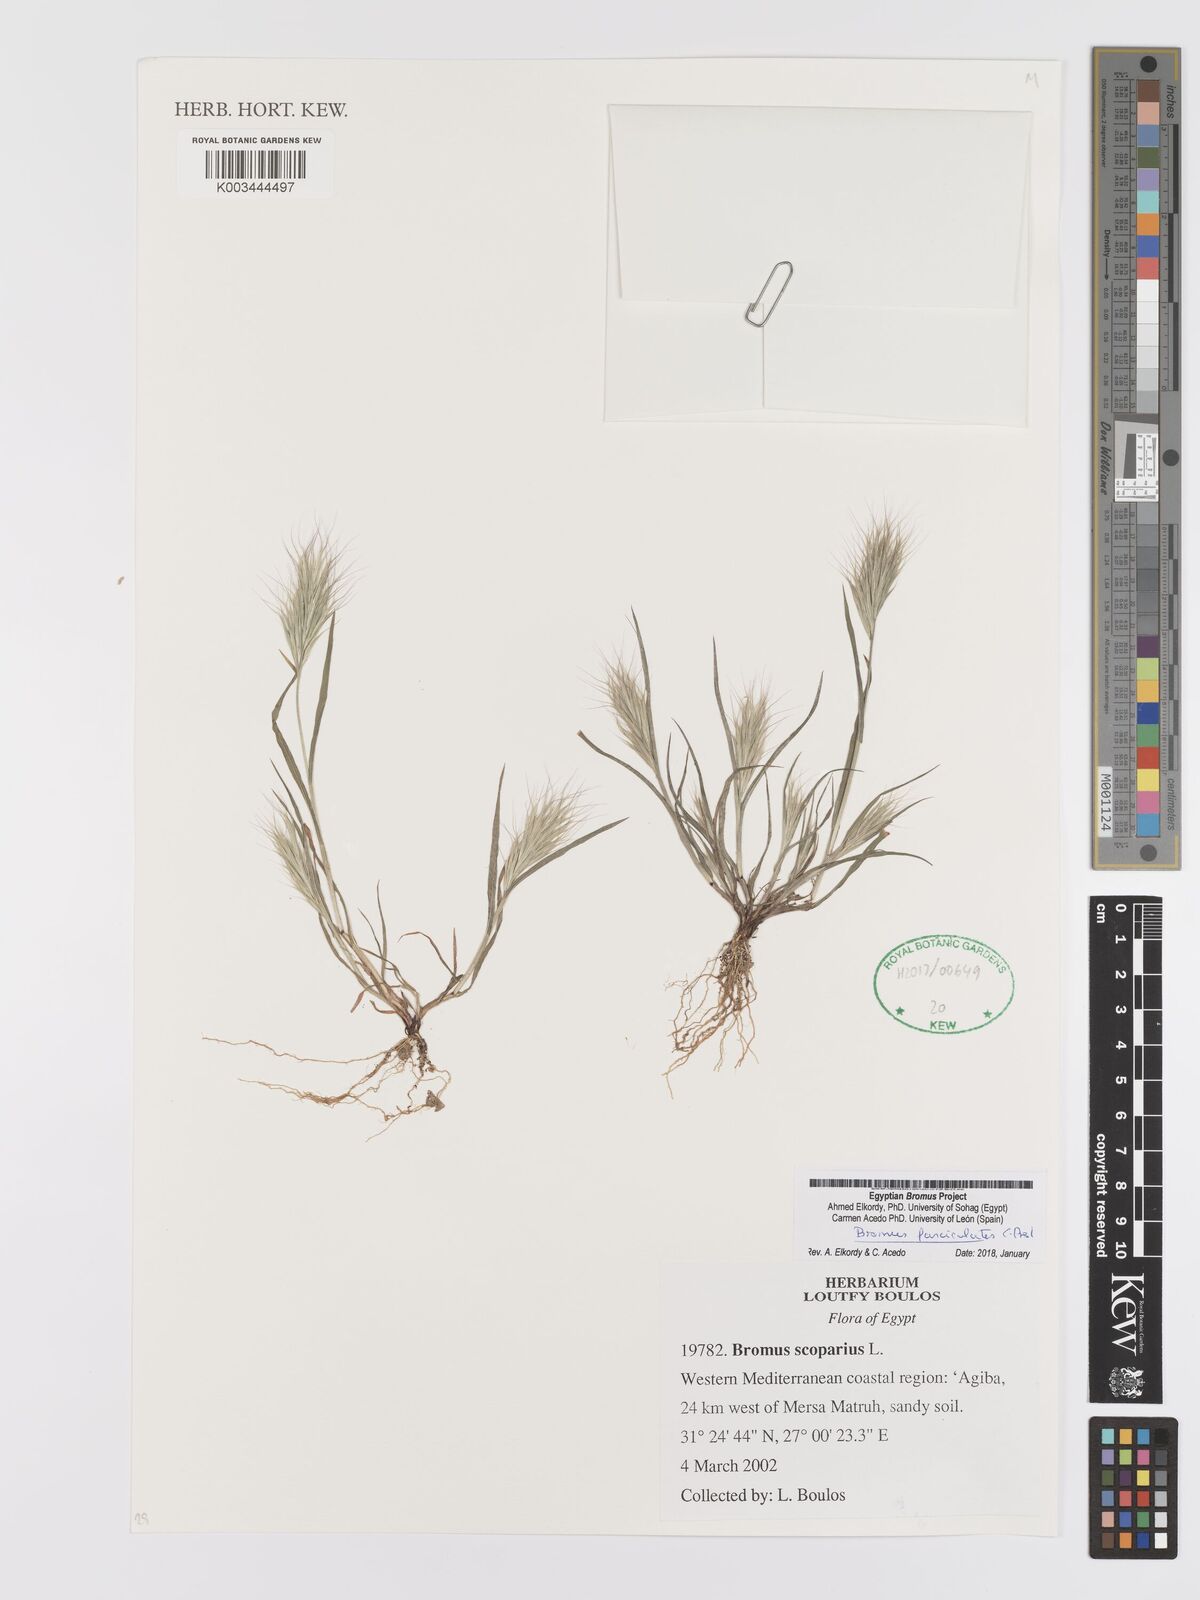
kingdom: Plantae
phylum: Tracheophyta
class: Liliopsida
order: Poales
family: Poaceae
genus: Bromus
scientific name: Bromus fasciculatus
